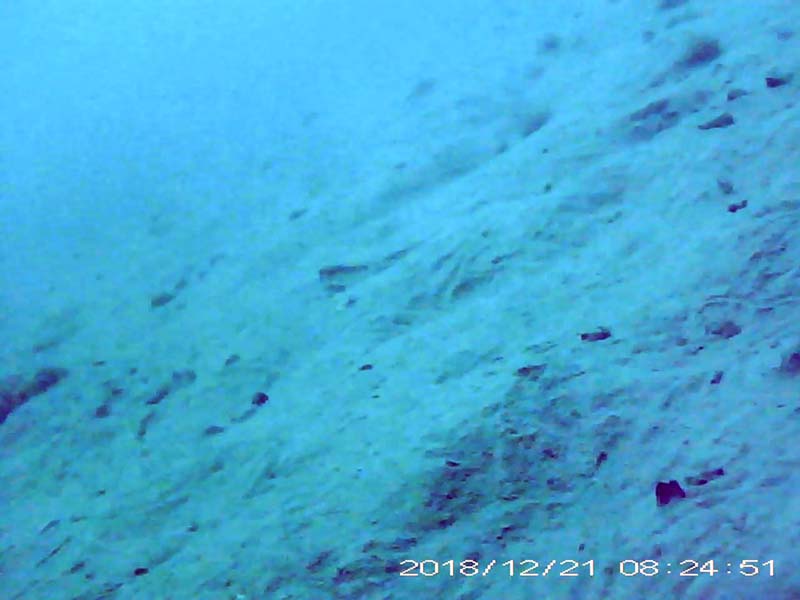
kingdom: Animalia
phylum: Chordata
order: Perciformes
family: Gobiidae
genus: Rhinogobius
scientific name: Rhinogobius
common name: ヨシノボリ
